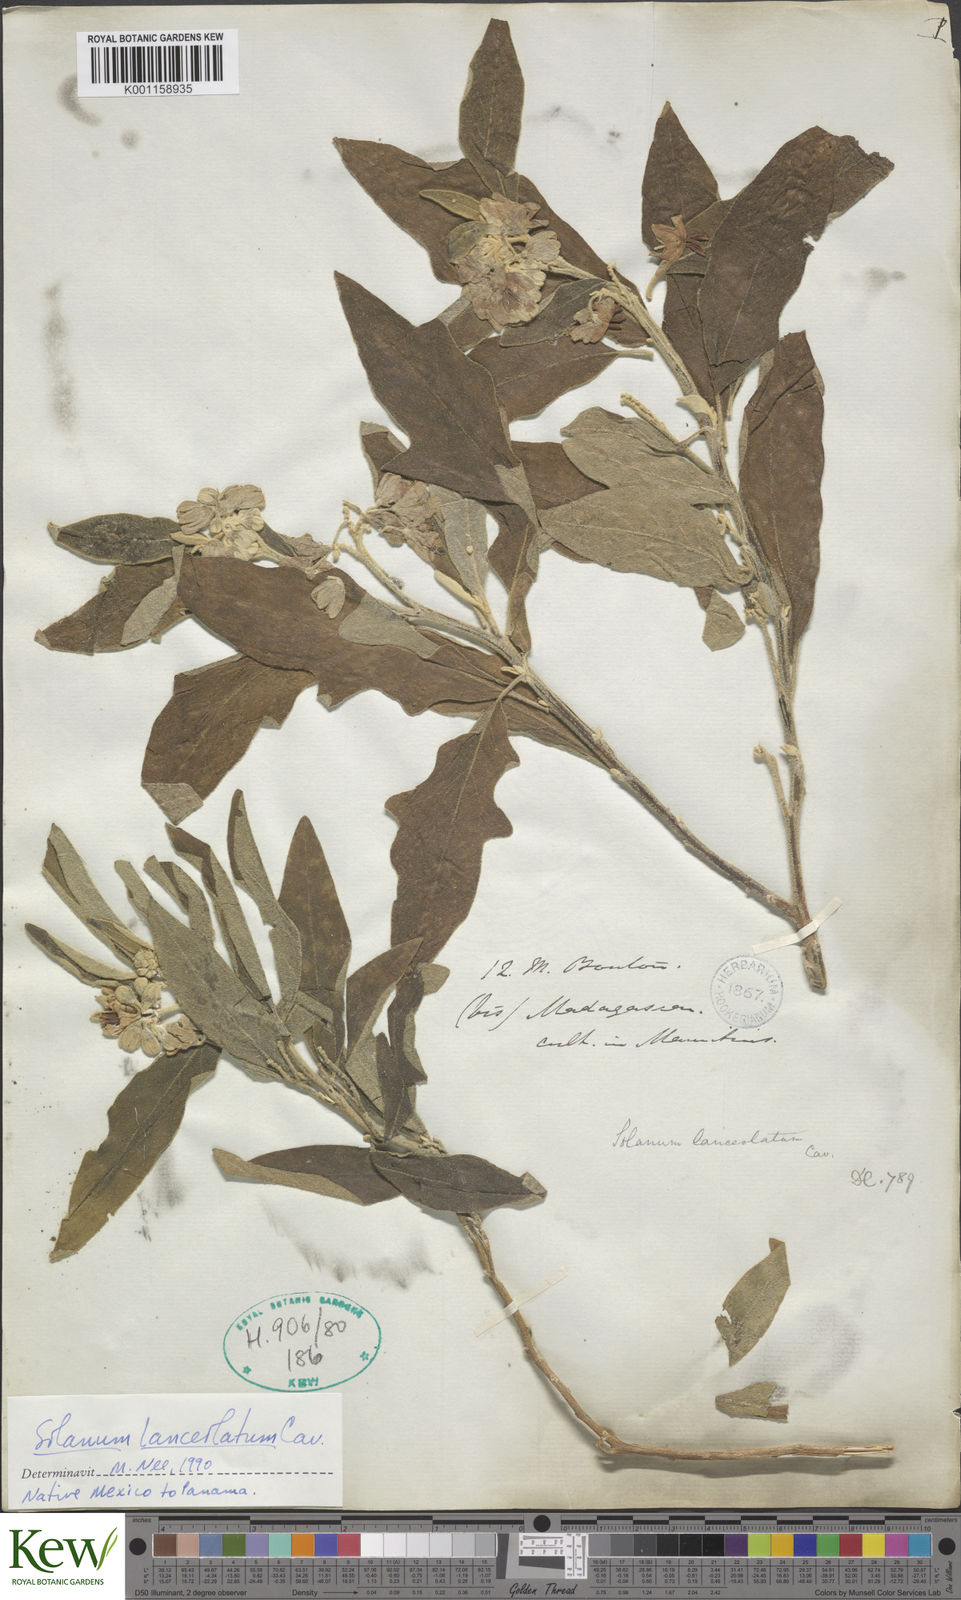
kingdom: Plantae
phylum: Tracheophyta
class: Magnoliopsida
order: Solanales
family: Solanaceae
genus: Solanum
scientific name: Solanum lanceolatum
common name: Orangeberry nightshade
